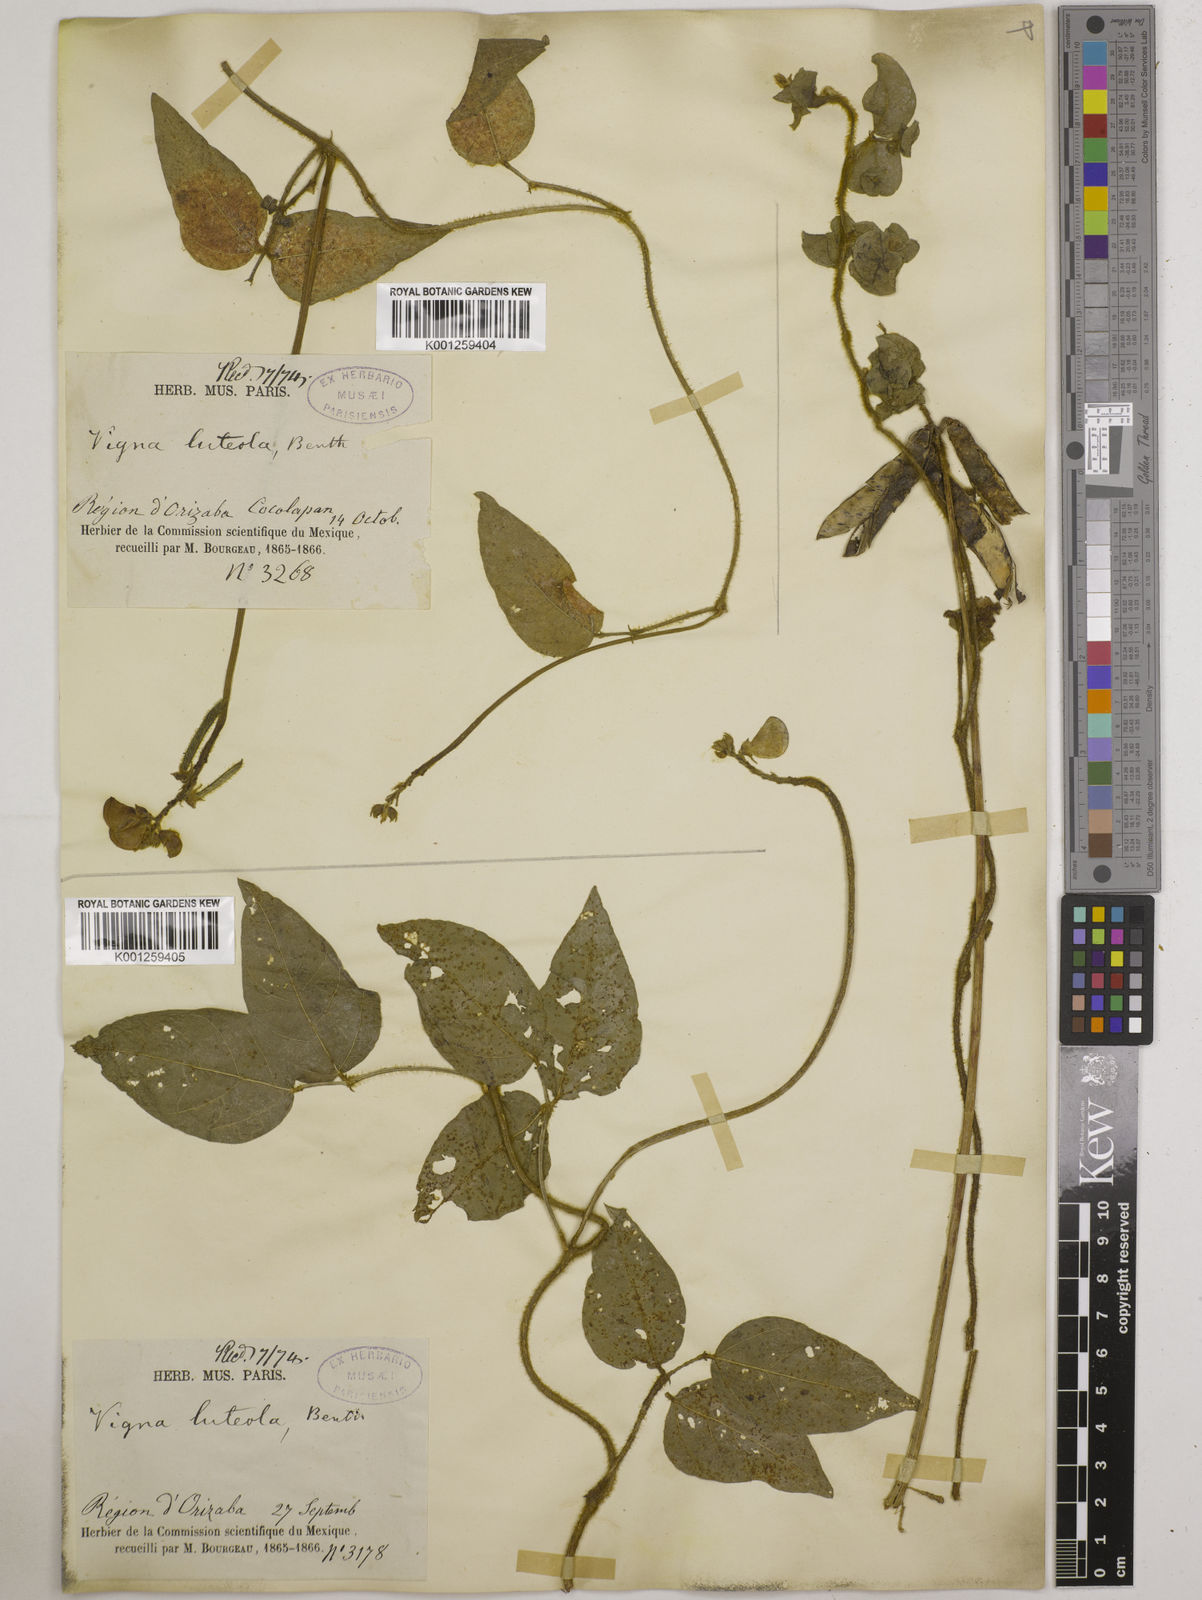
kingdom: Plantae
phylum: Tracheophyta
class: Magnoliopsida
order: Fabales
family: Fabaceae
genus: Vigna
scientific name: Vigna luteola
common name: Hairypod cowpea
